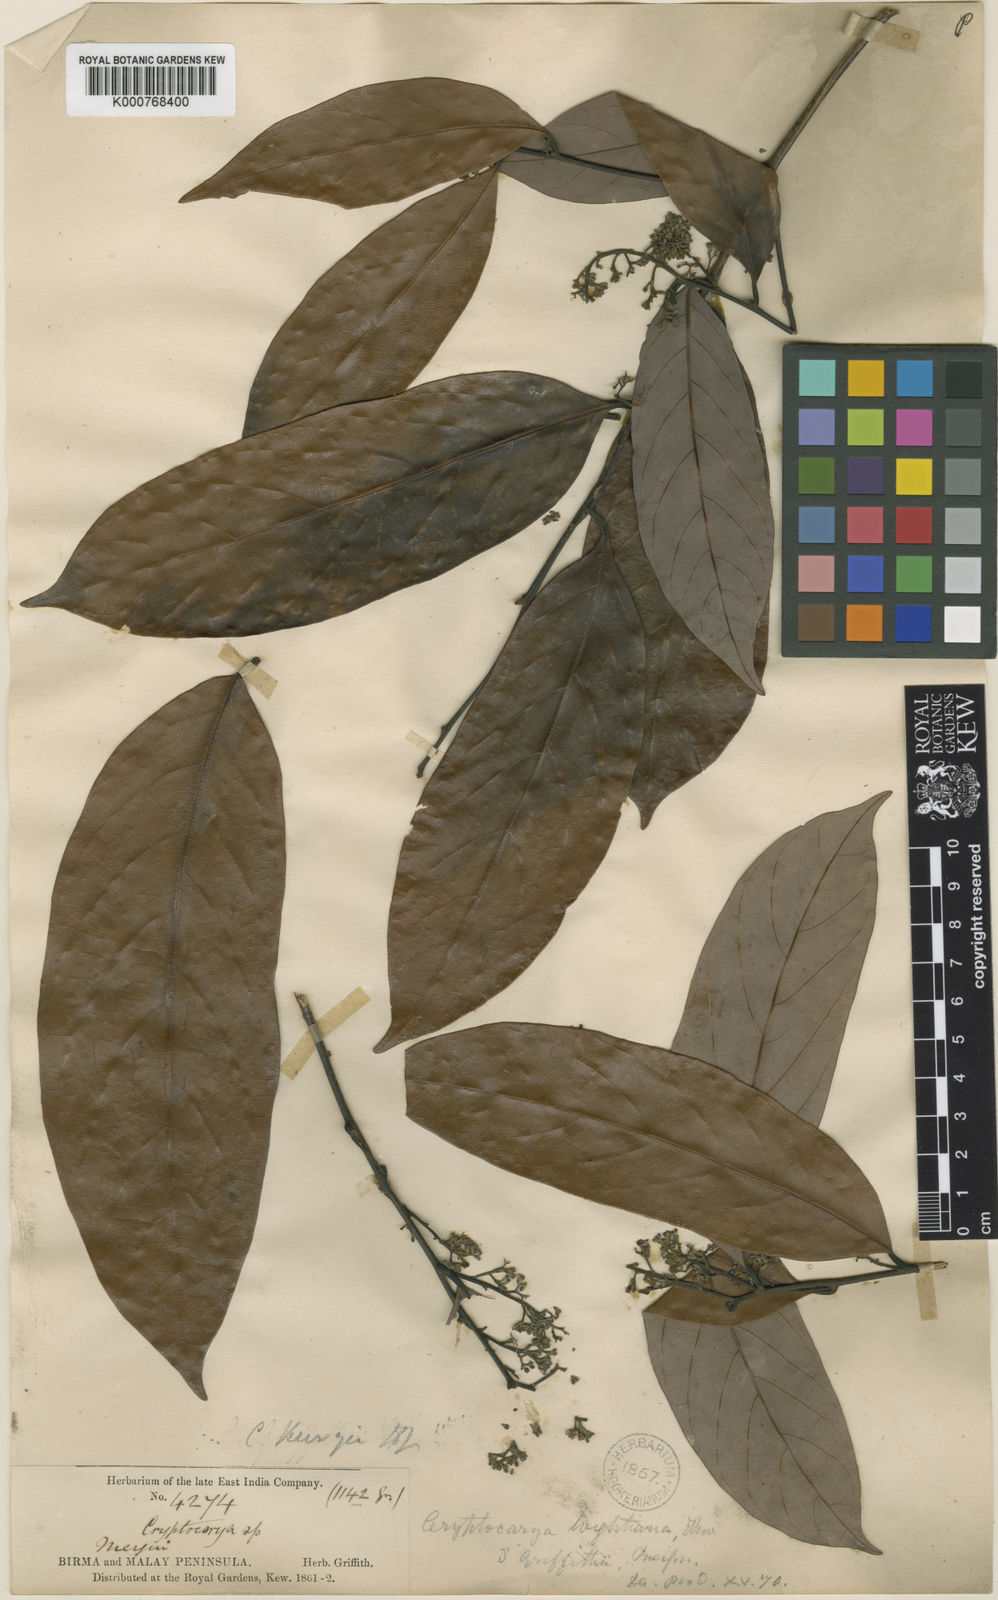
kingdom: Plantae
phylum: Tracheophyta
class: Magnoliopsida
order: Laurales
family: Lauraceae
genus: Cryptocarya
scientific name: Cryptocarya wightiana
